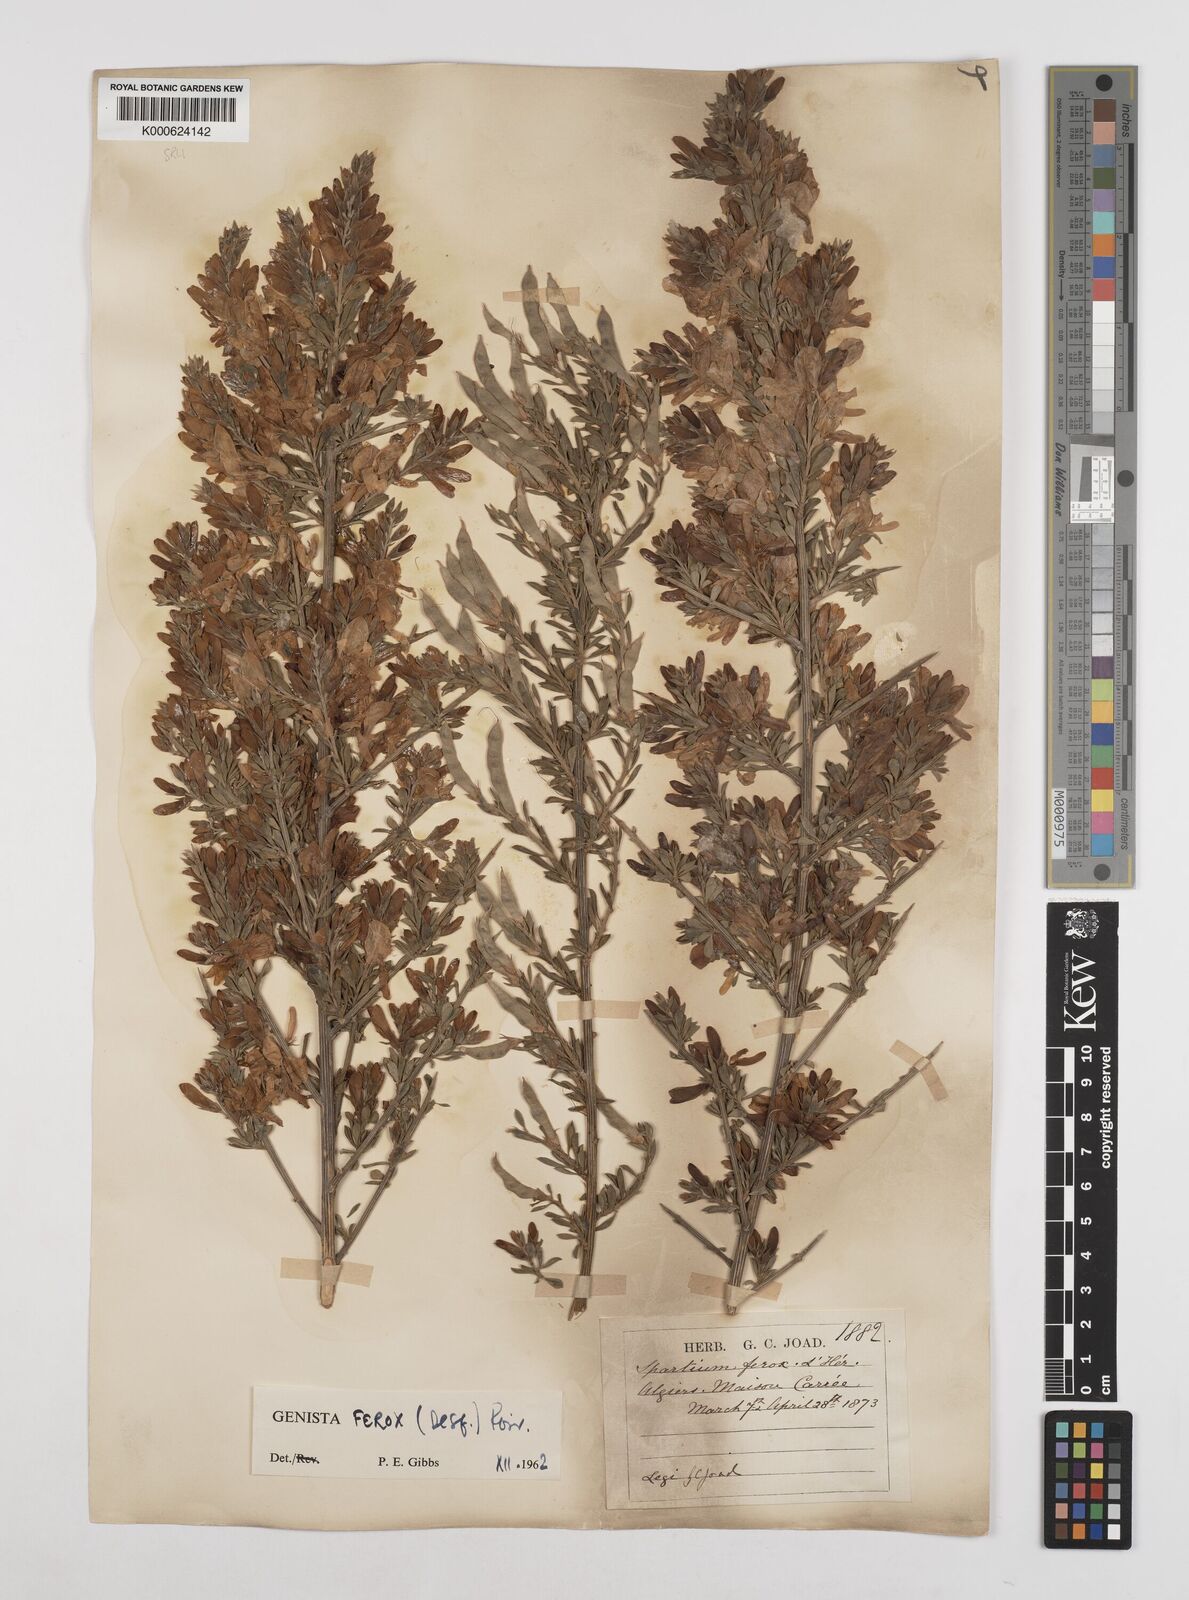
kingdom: Plantae
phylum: Tracheophyta
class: Magnoliopsida
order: Fabales
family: Fabaceae
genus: Genista
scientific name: Genista ferox
